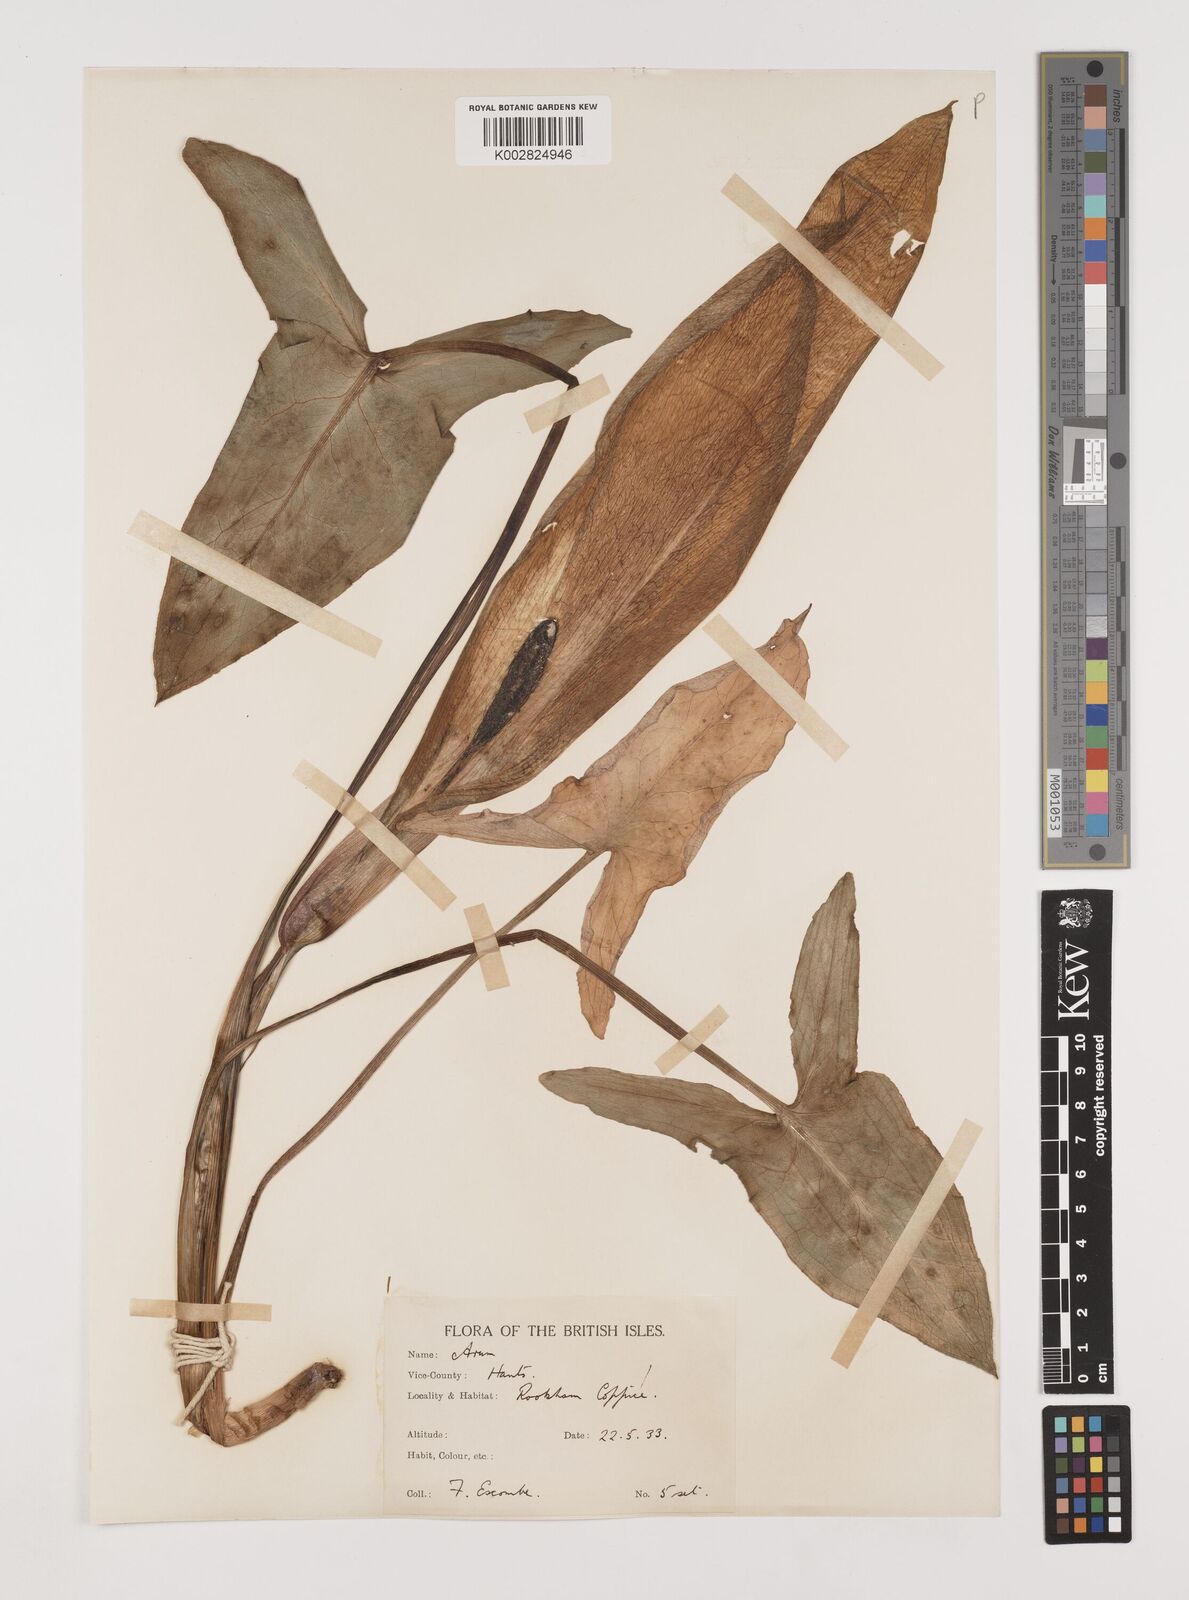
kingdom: Plantae
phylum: Tracheophyta
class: Liliopsida
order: Alismatales
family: Araceae
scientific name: Araceae
